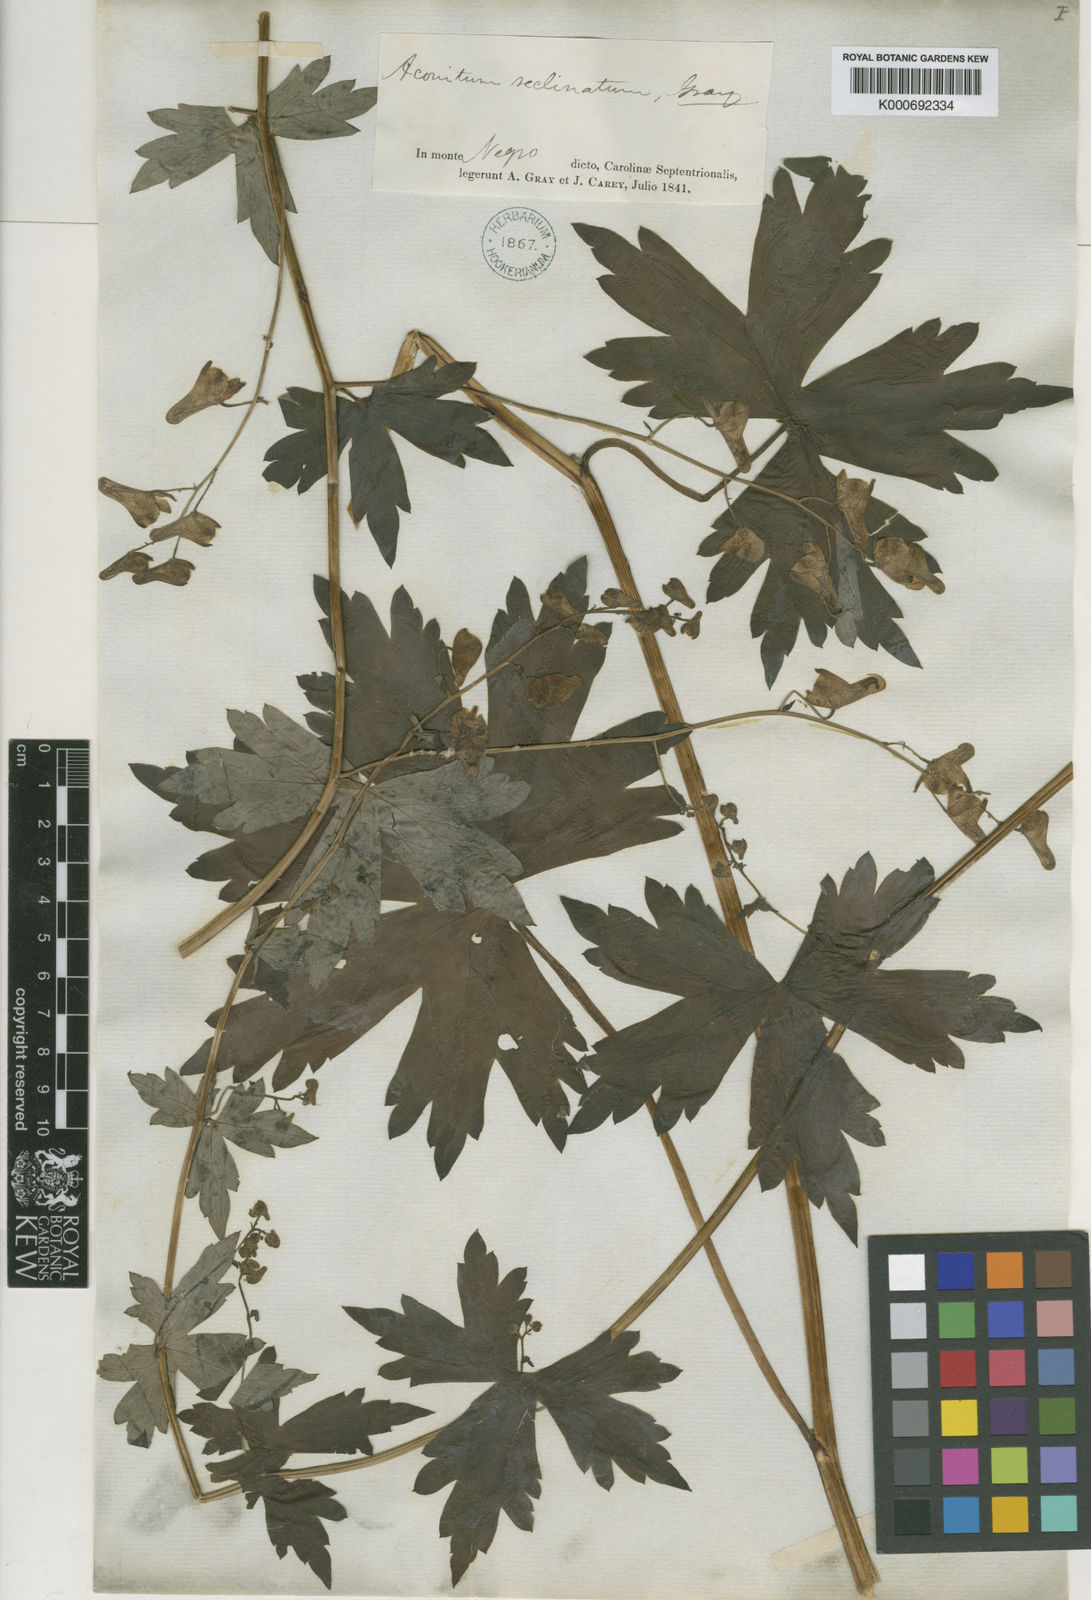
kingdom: Plantae
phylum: Tracheophyta
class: Magnoliopsida
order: Ranunculales
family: Ranunculaceae
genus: Aconitum
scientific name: Aconitum reclinatum
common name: Trailing wolfsbane
